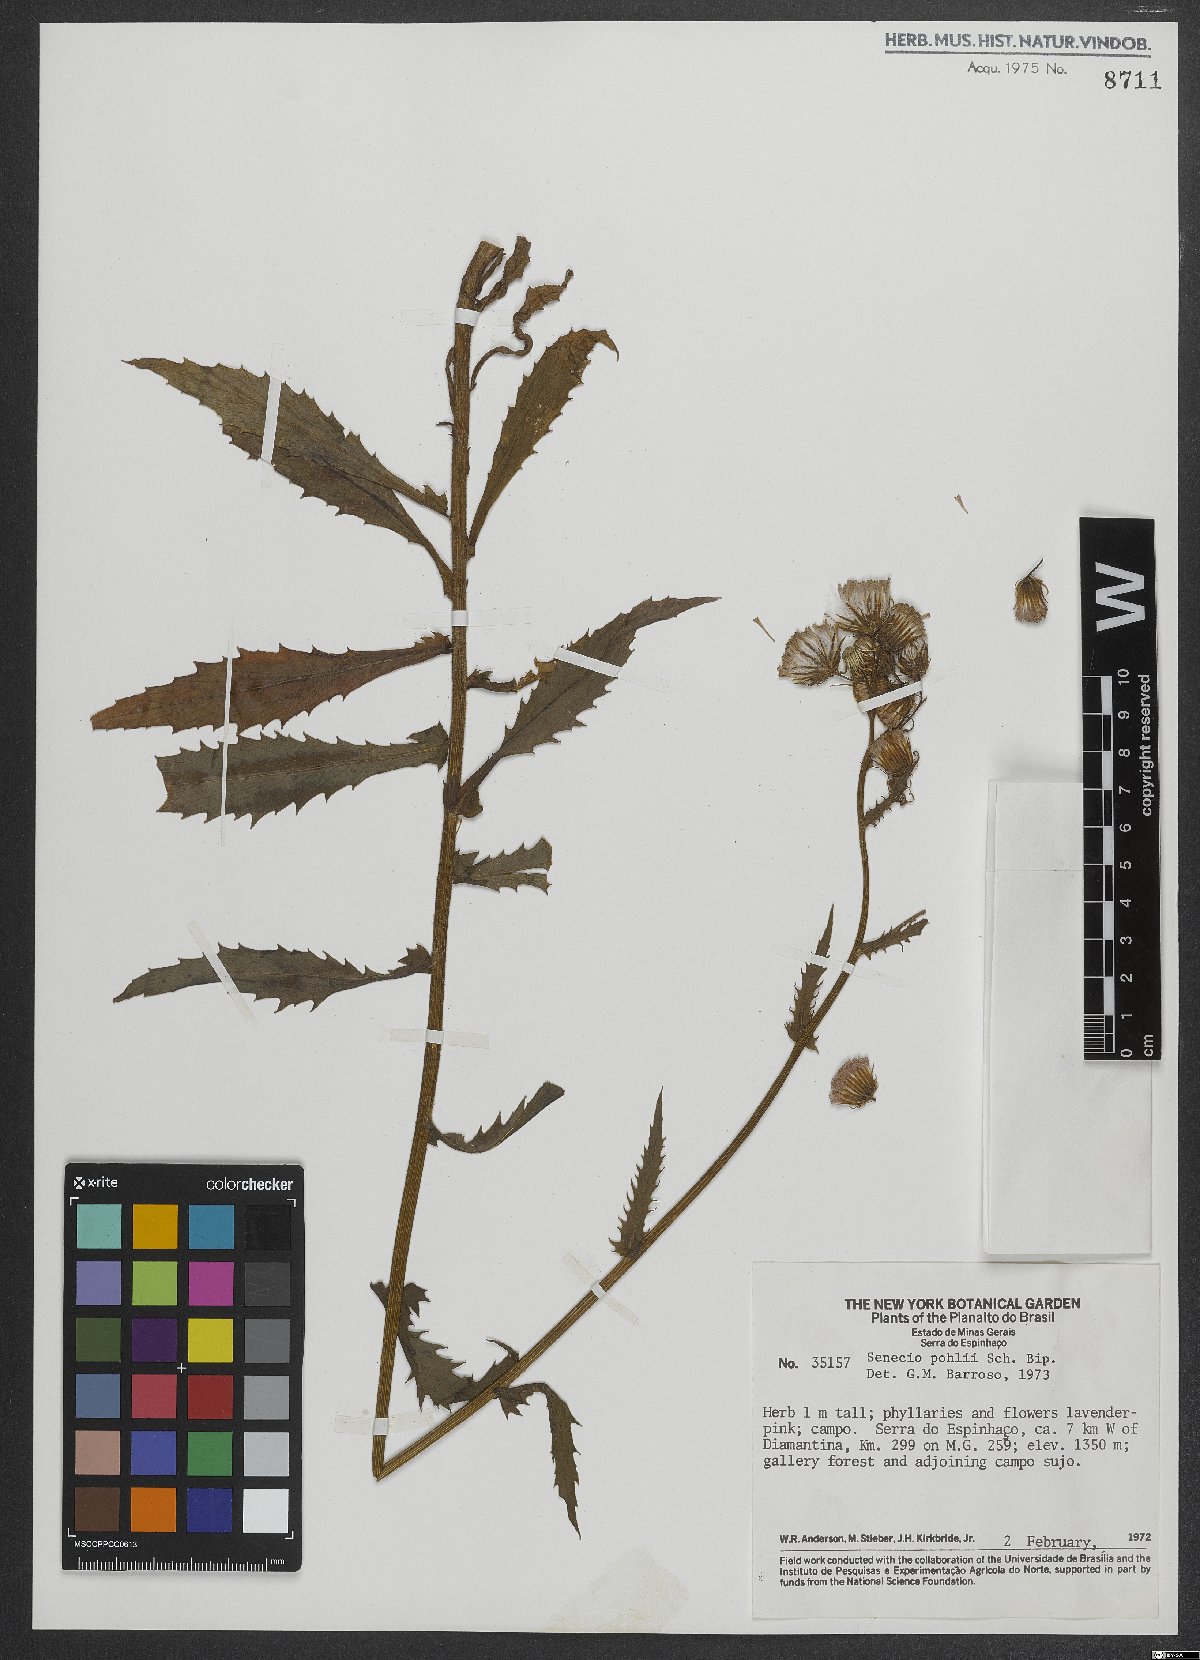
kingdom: Plantae
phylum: Tracheophyta
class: Magnoliopsida
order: Asterales
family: Asteraceae
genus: Pseudogynoxys
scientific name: Pseudogynoxys pohlii
